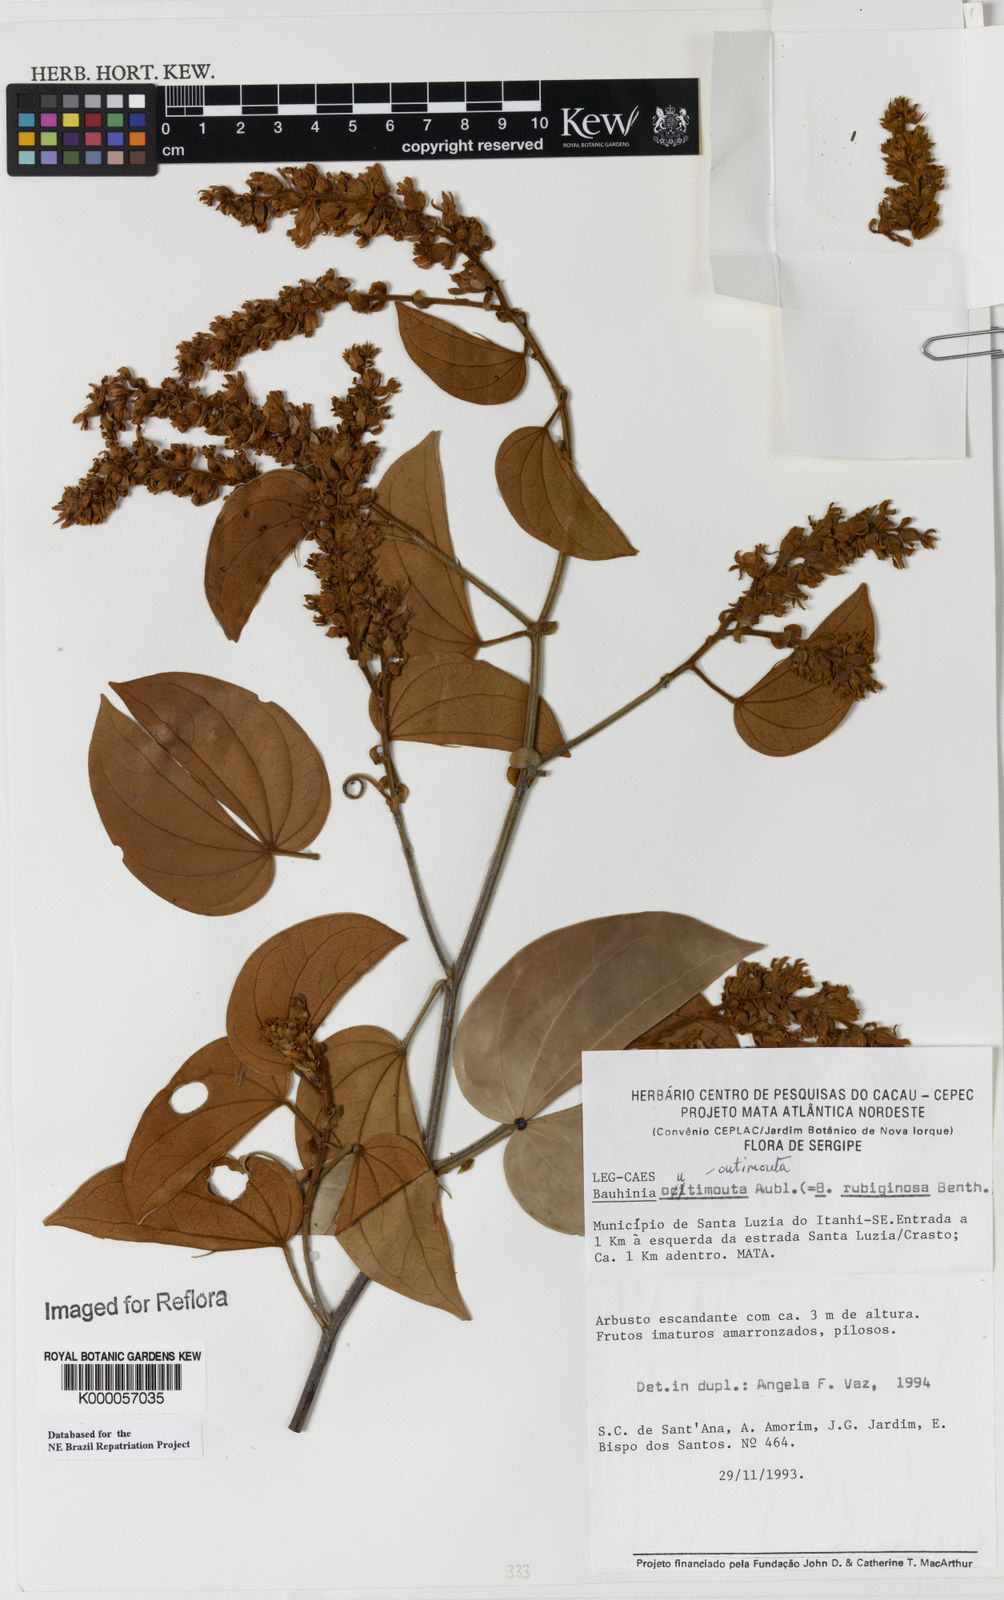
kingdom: Plantae
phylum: Tracheophyta
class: Magnoliopsida
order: Fabales
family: Fabaceae
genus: Schnella
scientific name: Schnella outimouta
